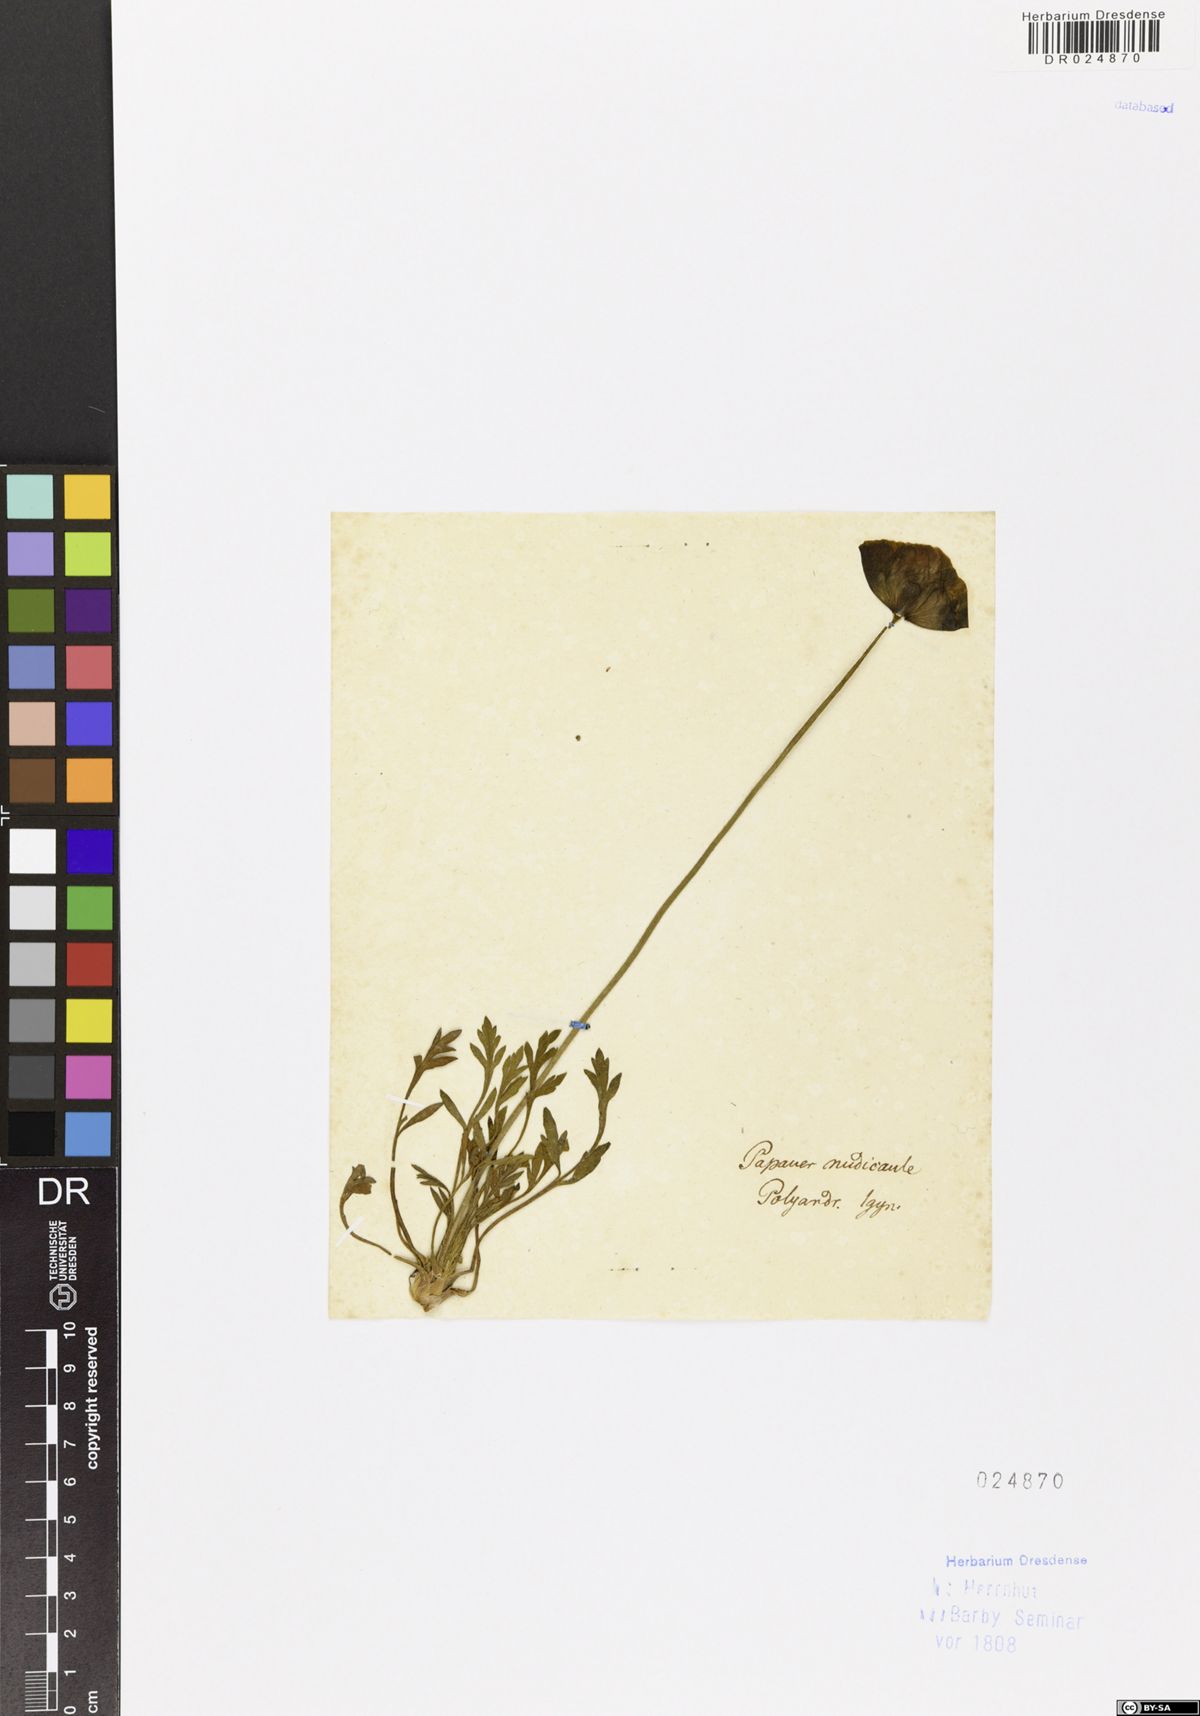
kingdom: Plantae
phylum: Tracheophyta
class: Magnoliopsida
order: Ranunculales
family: Papaveraceae
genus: Papaver
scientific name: Papaver nudicaule
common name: Arctic poppy
